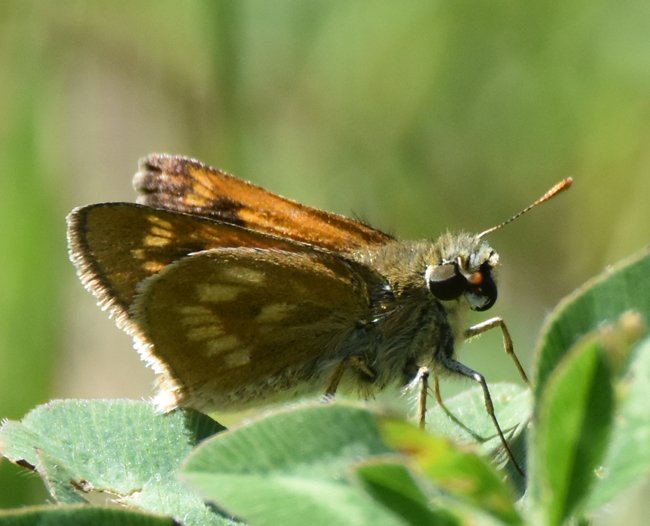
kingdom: Animalia
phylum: Arthropoda
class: Insecta
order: Lepidoptera
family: Hesperiidae
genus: Polites
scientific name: Polites
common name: Long Dash Skipper
